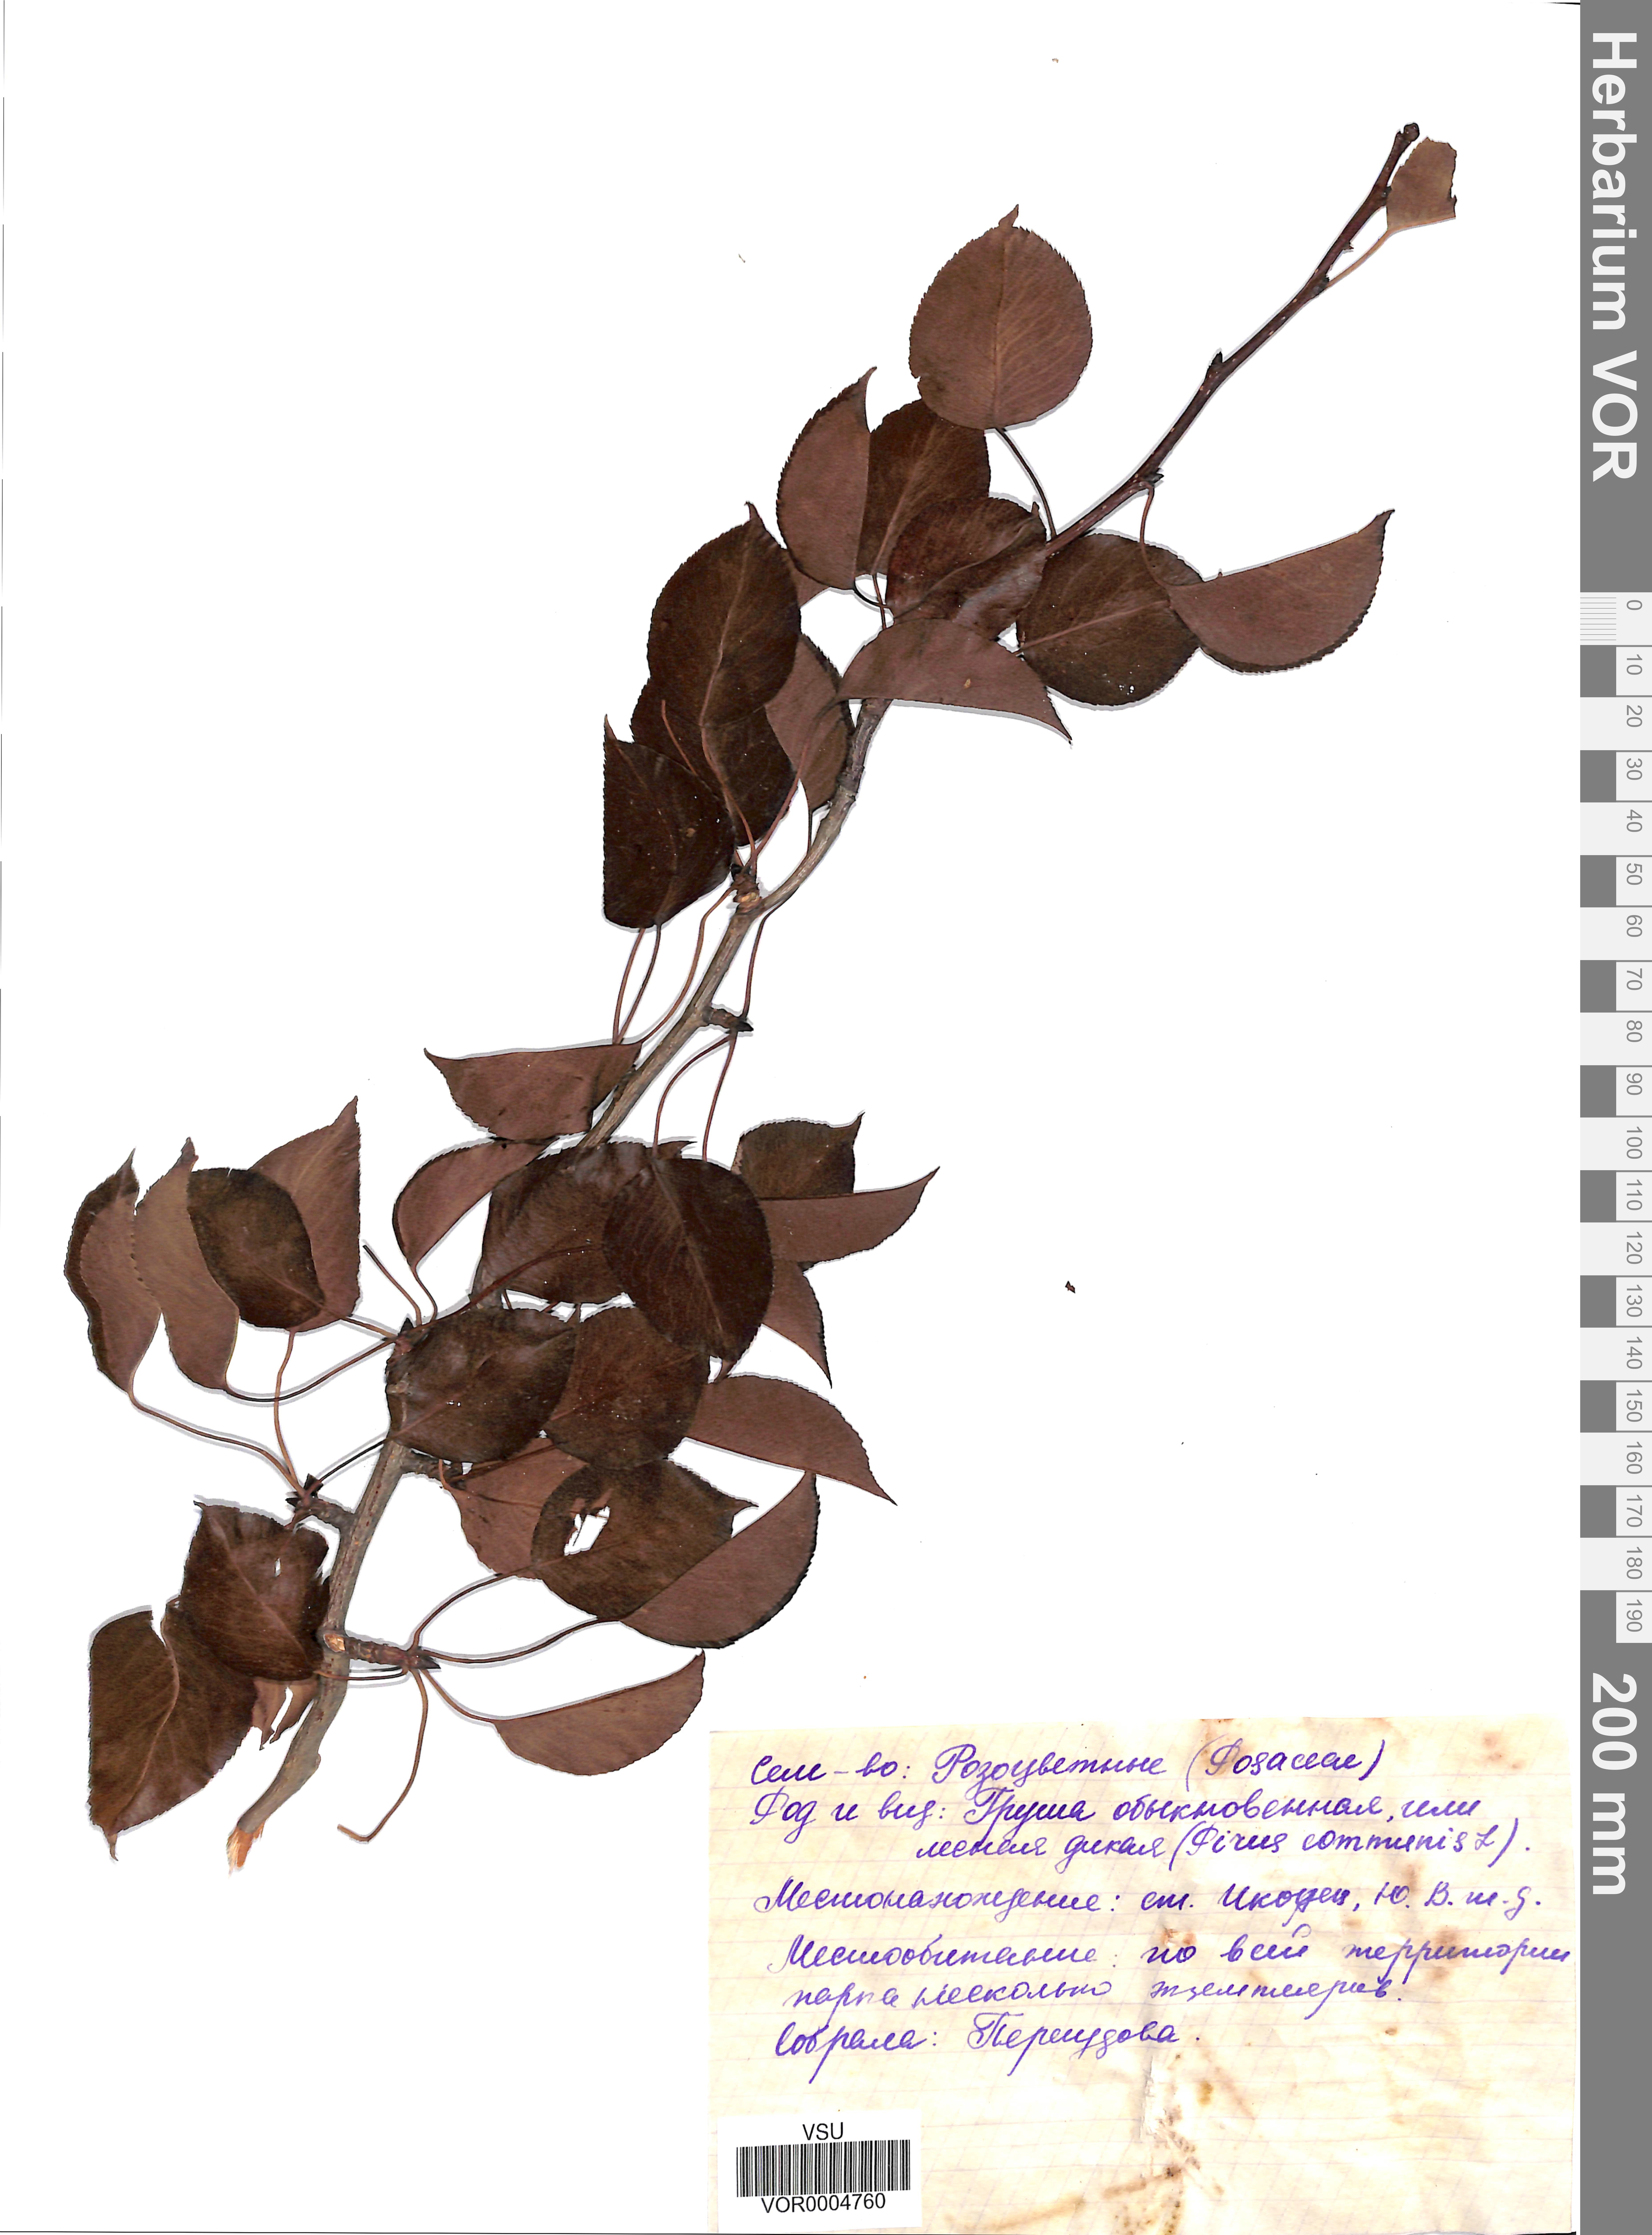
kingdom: Plantae
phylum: Tracheophyta
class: Magnoliopsida
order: Rosales
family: Rosaceae
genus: Pyrus
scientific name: Pyrus communis
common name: Pear
